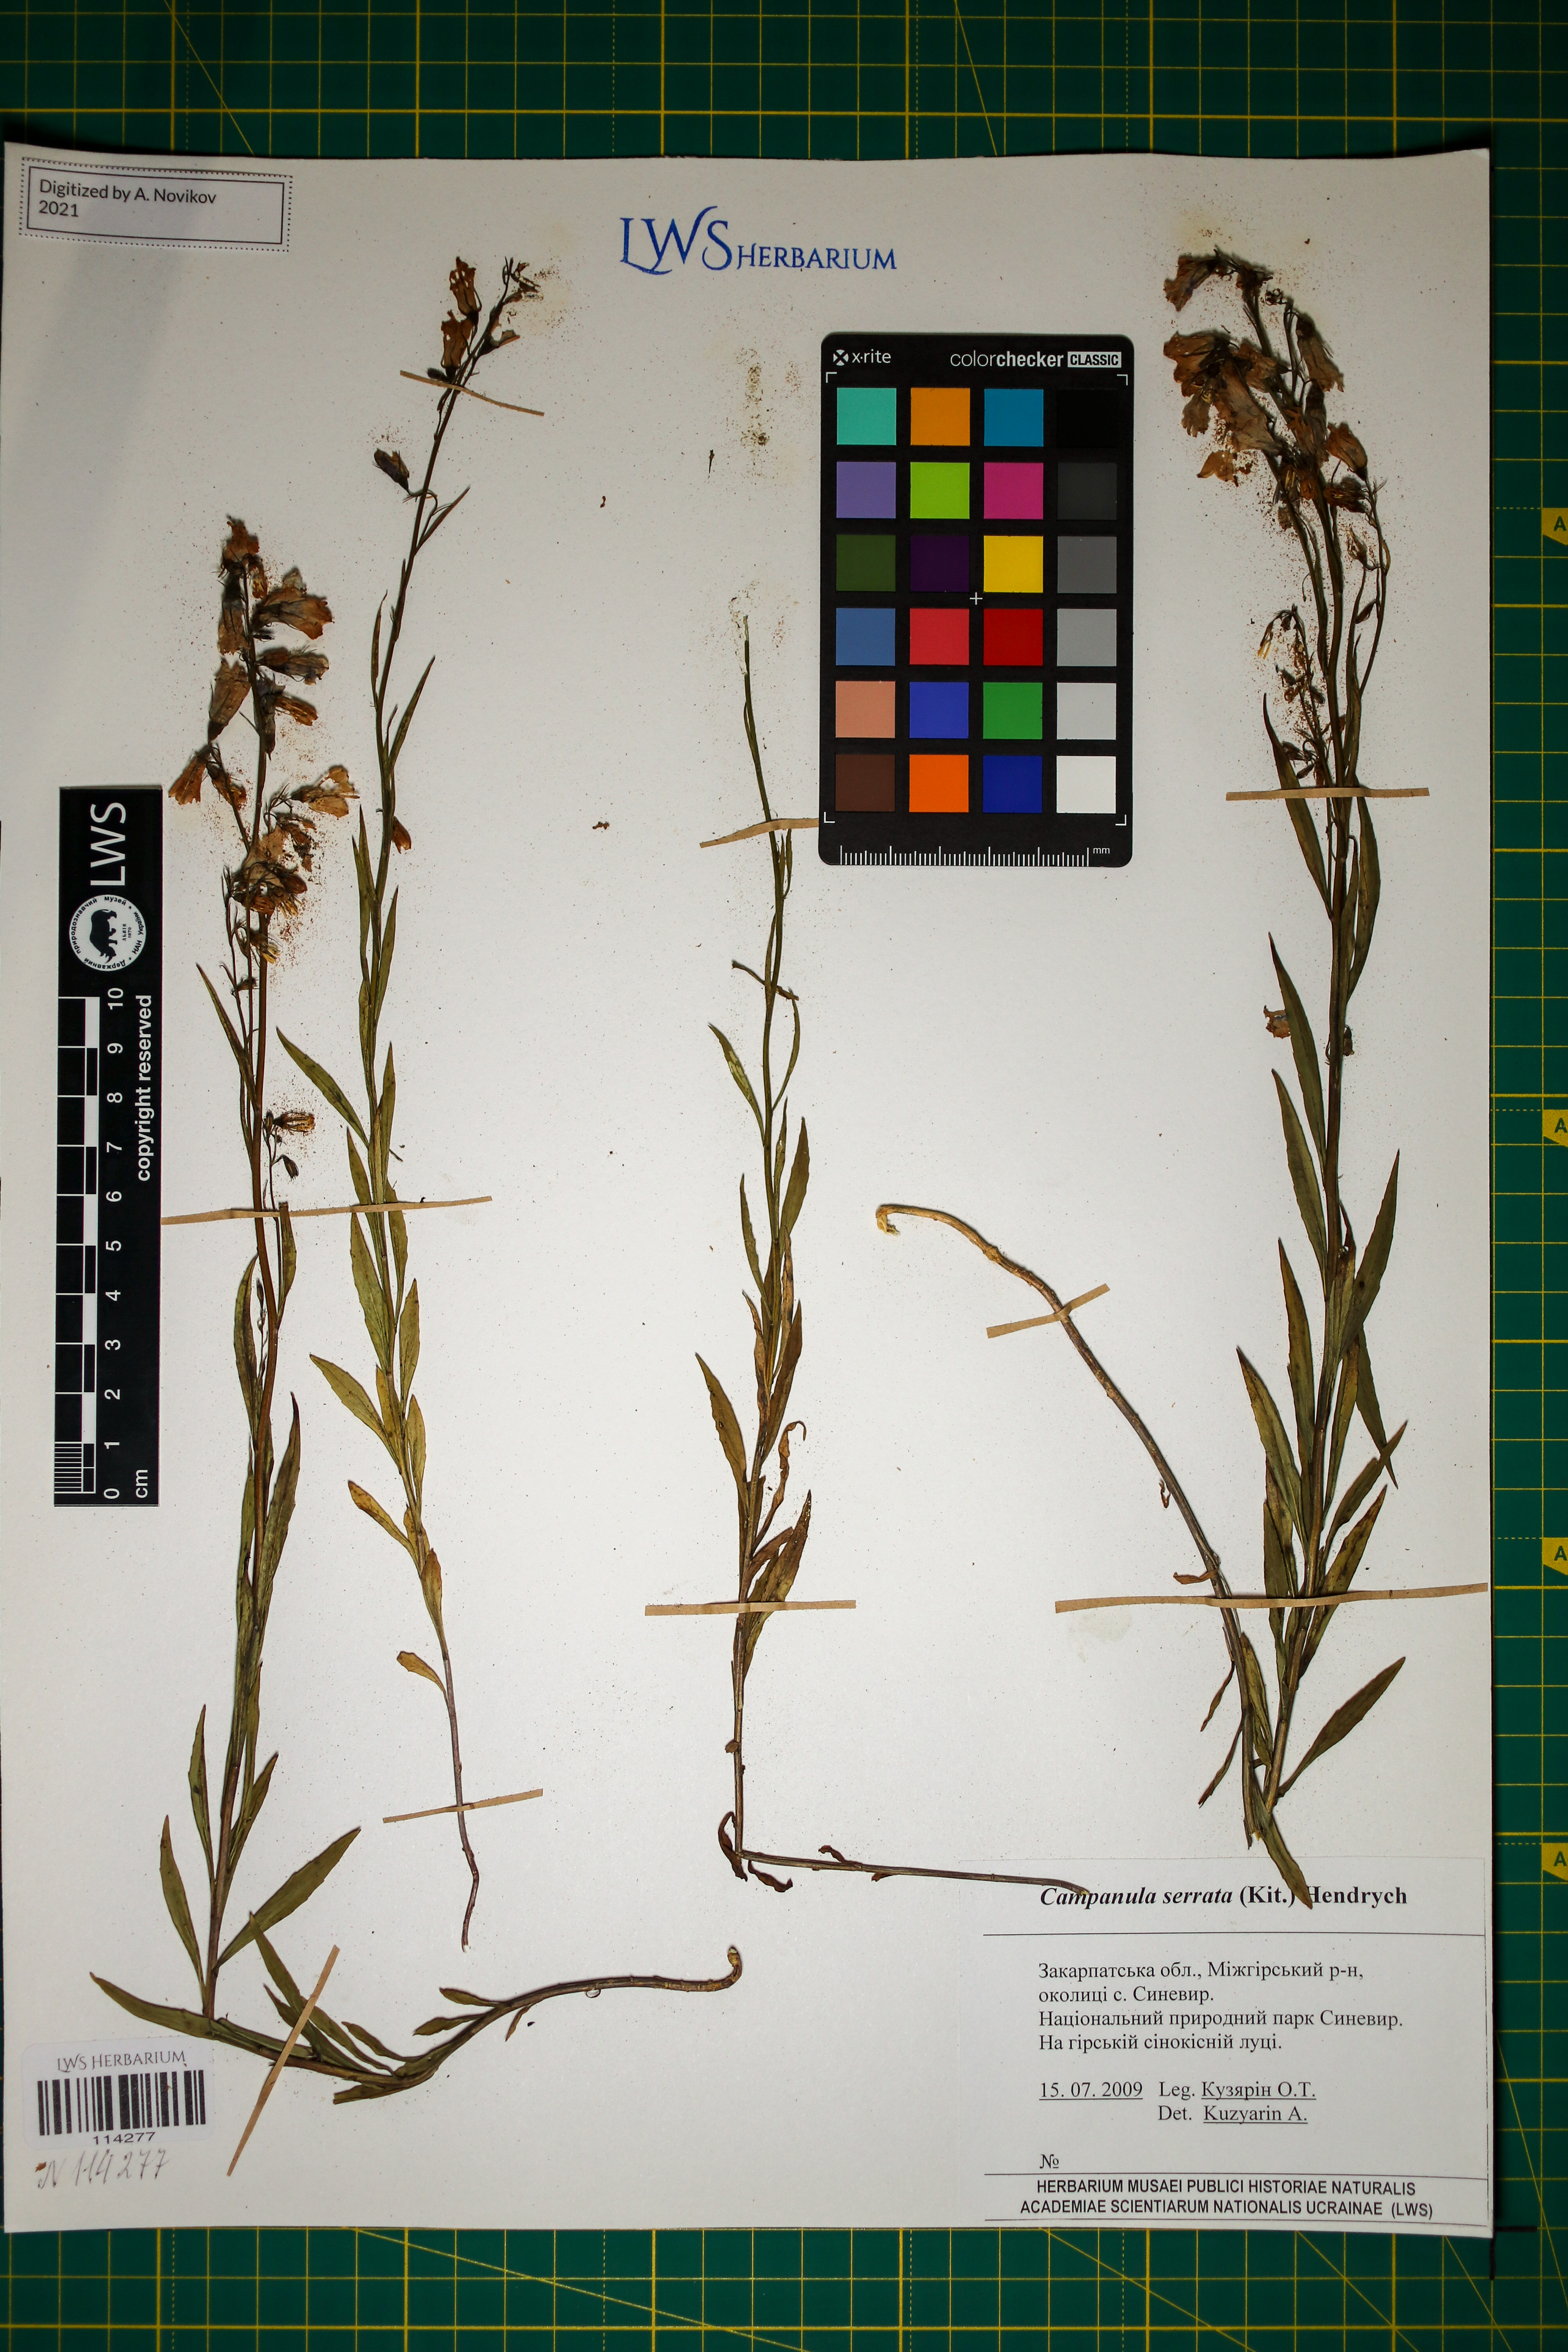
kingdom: Plantae
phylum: Tracheophyta
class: Magnoliopsida
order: Asterales
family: Campanulaceae
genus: Campanula
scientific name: Campanula serrata
